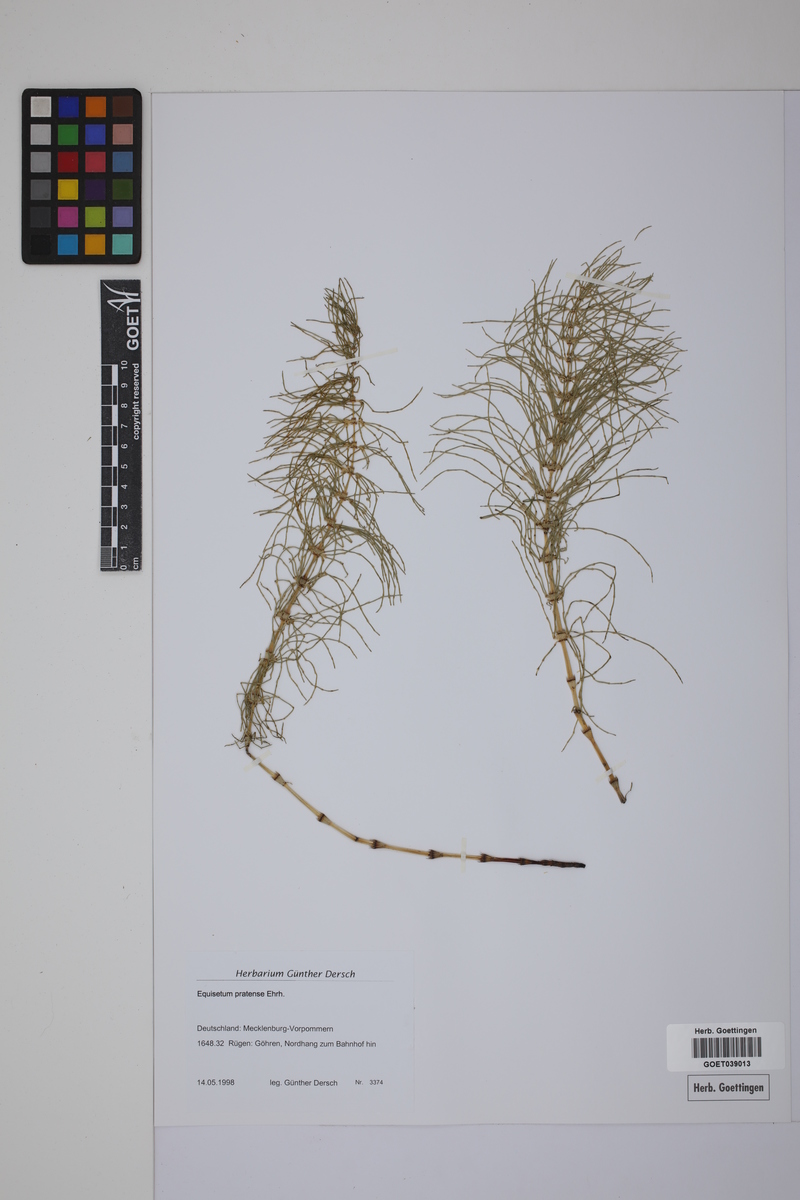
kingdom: Plantae
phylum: Tracheophyta
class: Polypodiopsida
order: Equisetales
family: Equisetaceae
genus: Equisetum
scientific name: Equisetum pratense
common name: Meadow horsetail
